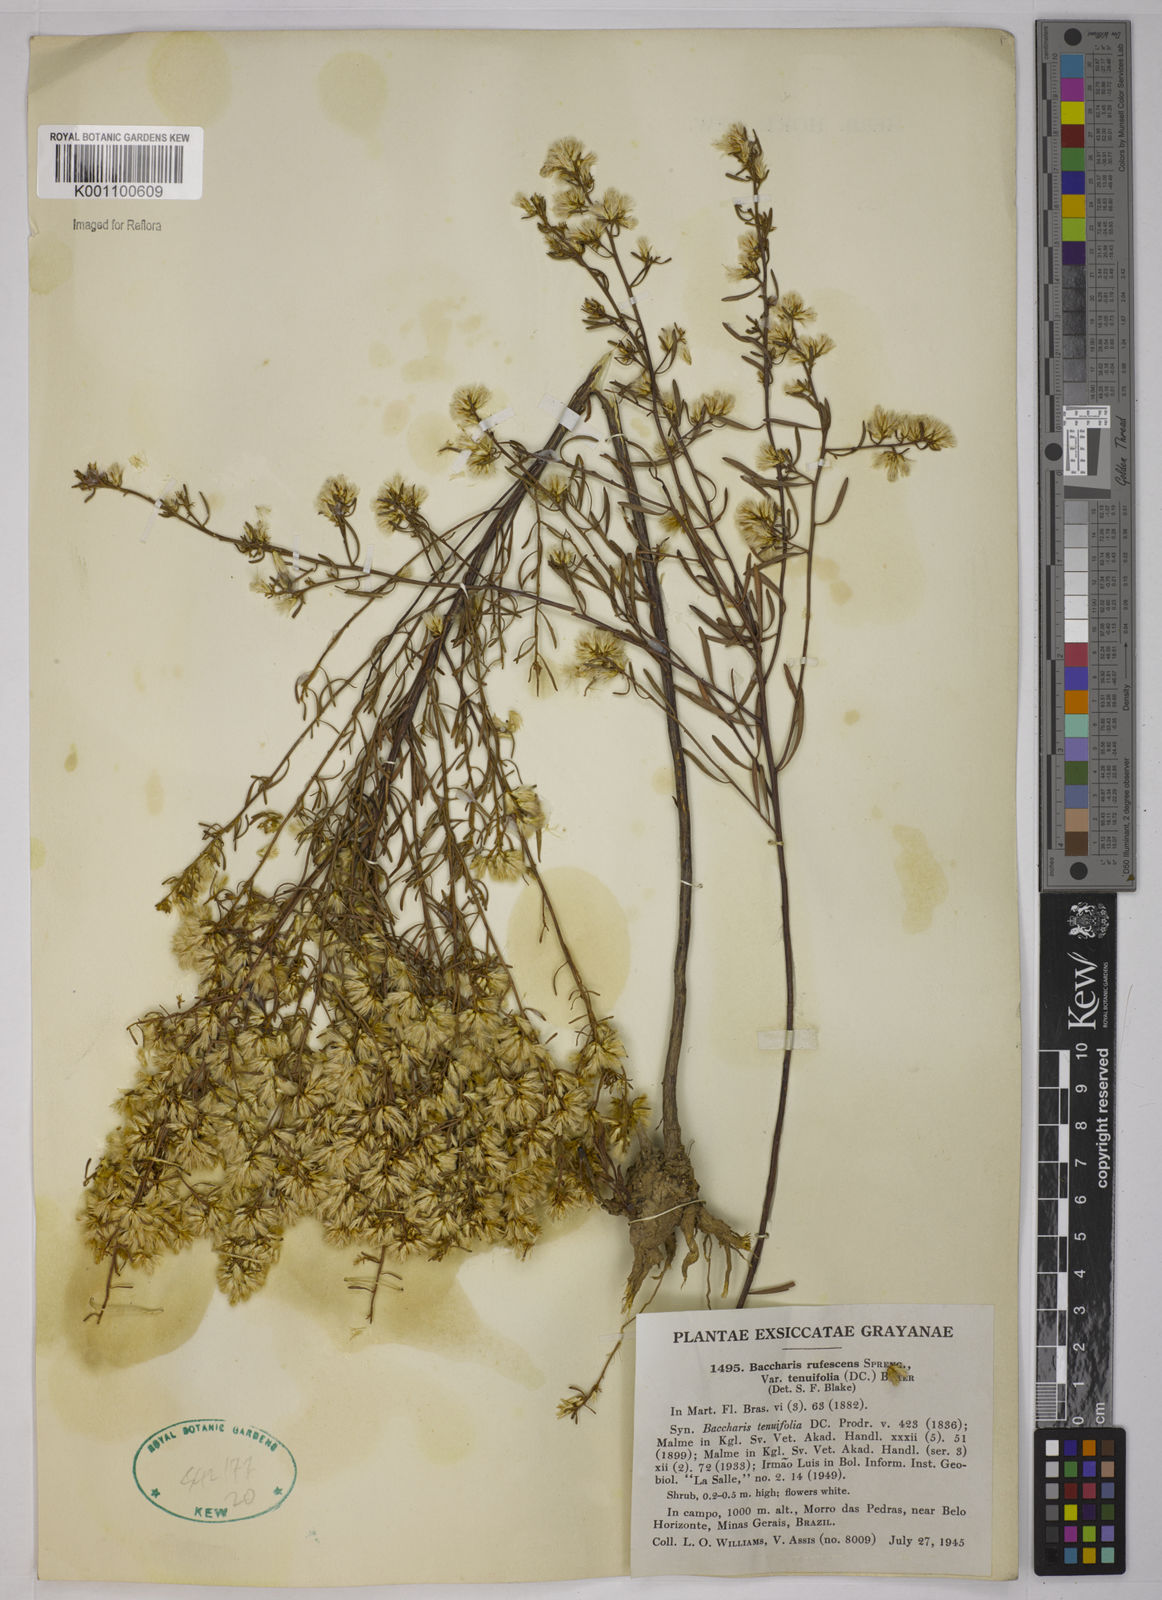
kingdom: Plantae
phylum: Tracheophyta
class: Magnoliopsida
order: Asterales
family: Asteraceae
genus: Baccharis
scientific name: Baccharis rufescens
